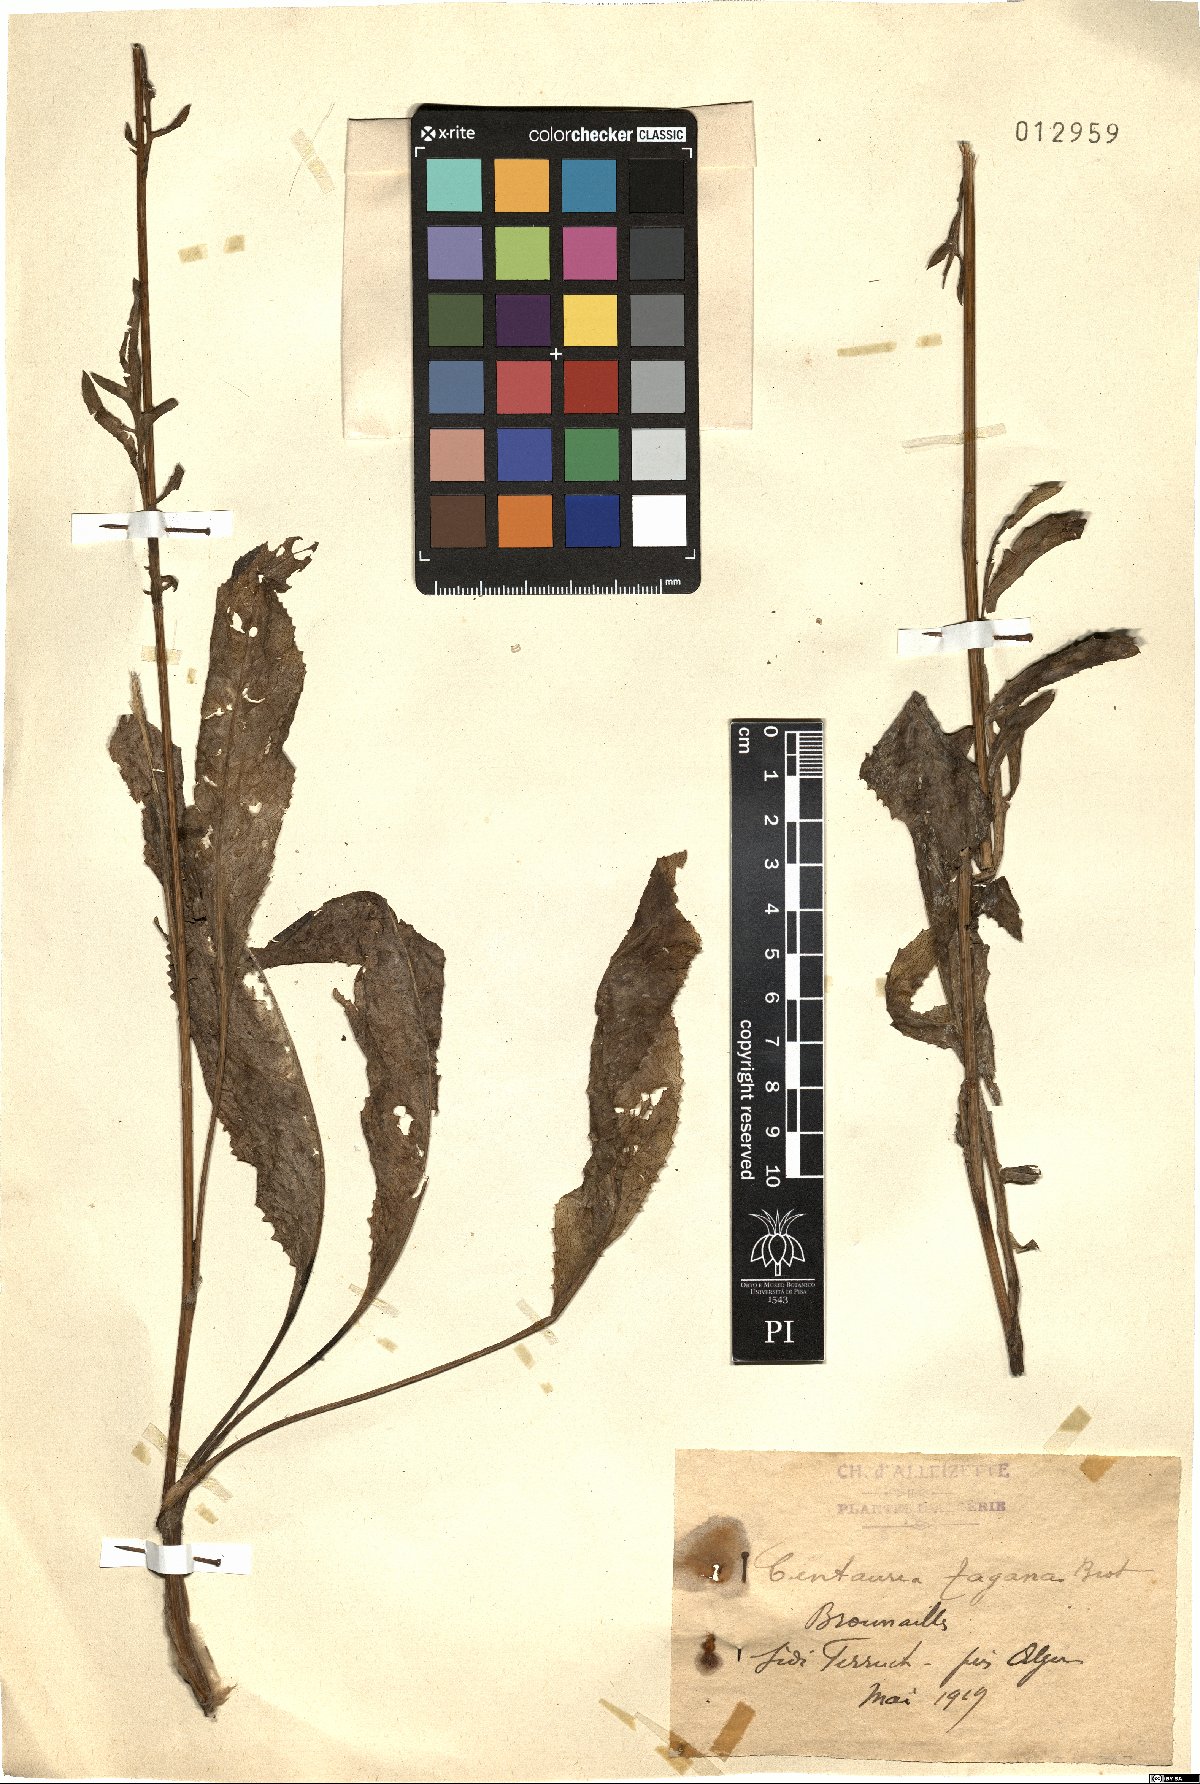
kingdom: Plantae
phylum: Tracheophyta
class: Magnoliopsida
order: Asterales
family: Asteraceae
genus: Rhaponticoides
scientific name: Rhaponticoides africana
